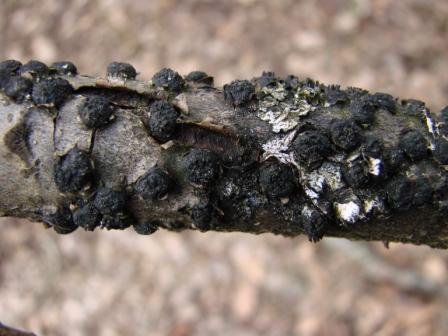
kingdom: Fungi
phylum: Ascomycota
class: Sordariomycetes
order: Xylariales
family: Diatrypaceae
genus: Diatrypella
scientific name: Diatrypella quercina
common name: ege-kulskorpe
